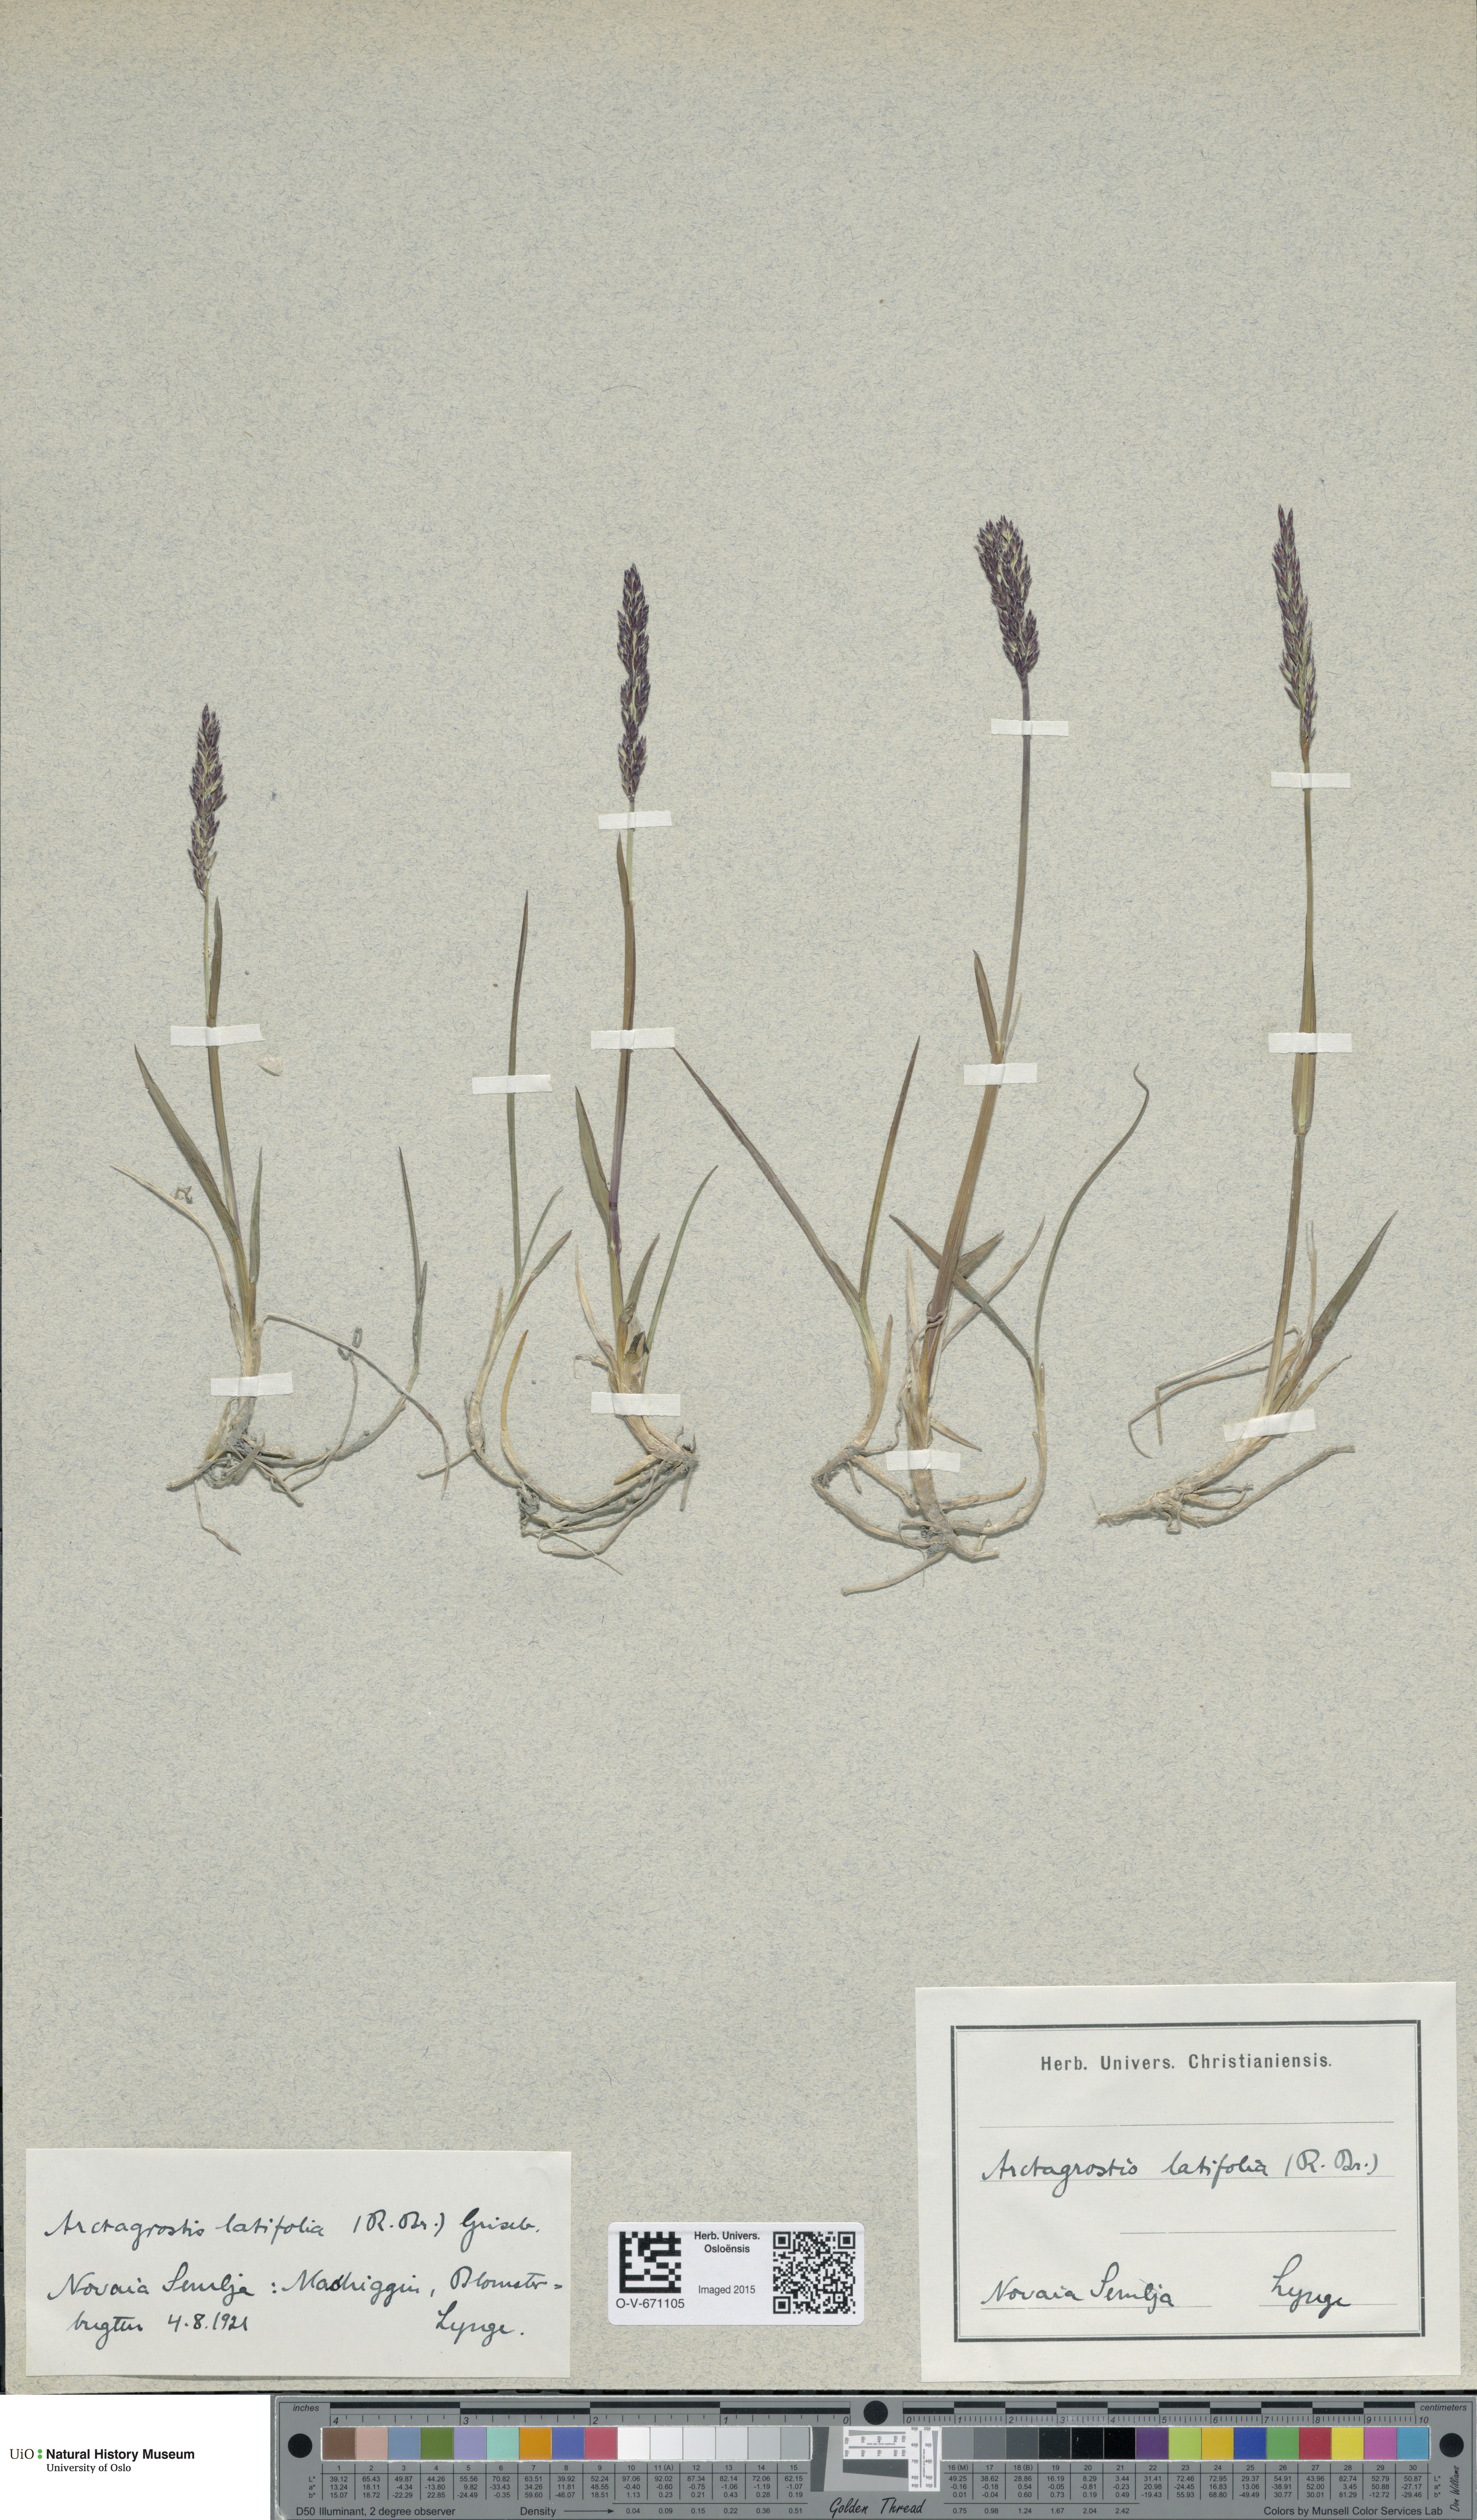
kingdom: Plantae
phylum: Tracheophyta
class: Liliopsida
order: Poales
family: Poaceae
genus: Arctagrostis
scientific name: Arctagrostis latifolia
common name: Arctic grass
